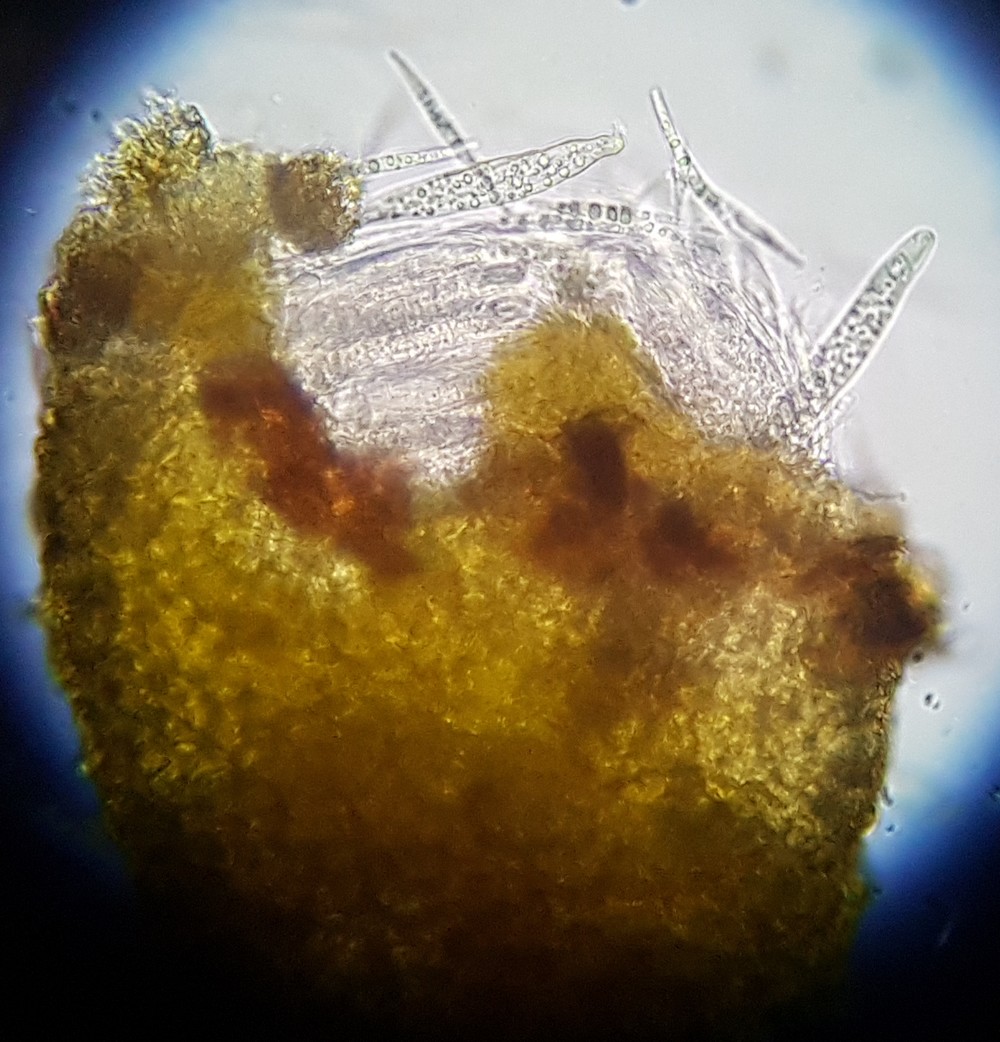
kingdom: Fungi
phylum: Ascomycota
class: Dothideomycetes
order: Tubeufiales
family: Tubeufiaceae
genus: Tubeufia
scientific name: Tubeufia cerea
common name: gulbrun tyksækkrukke
